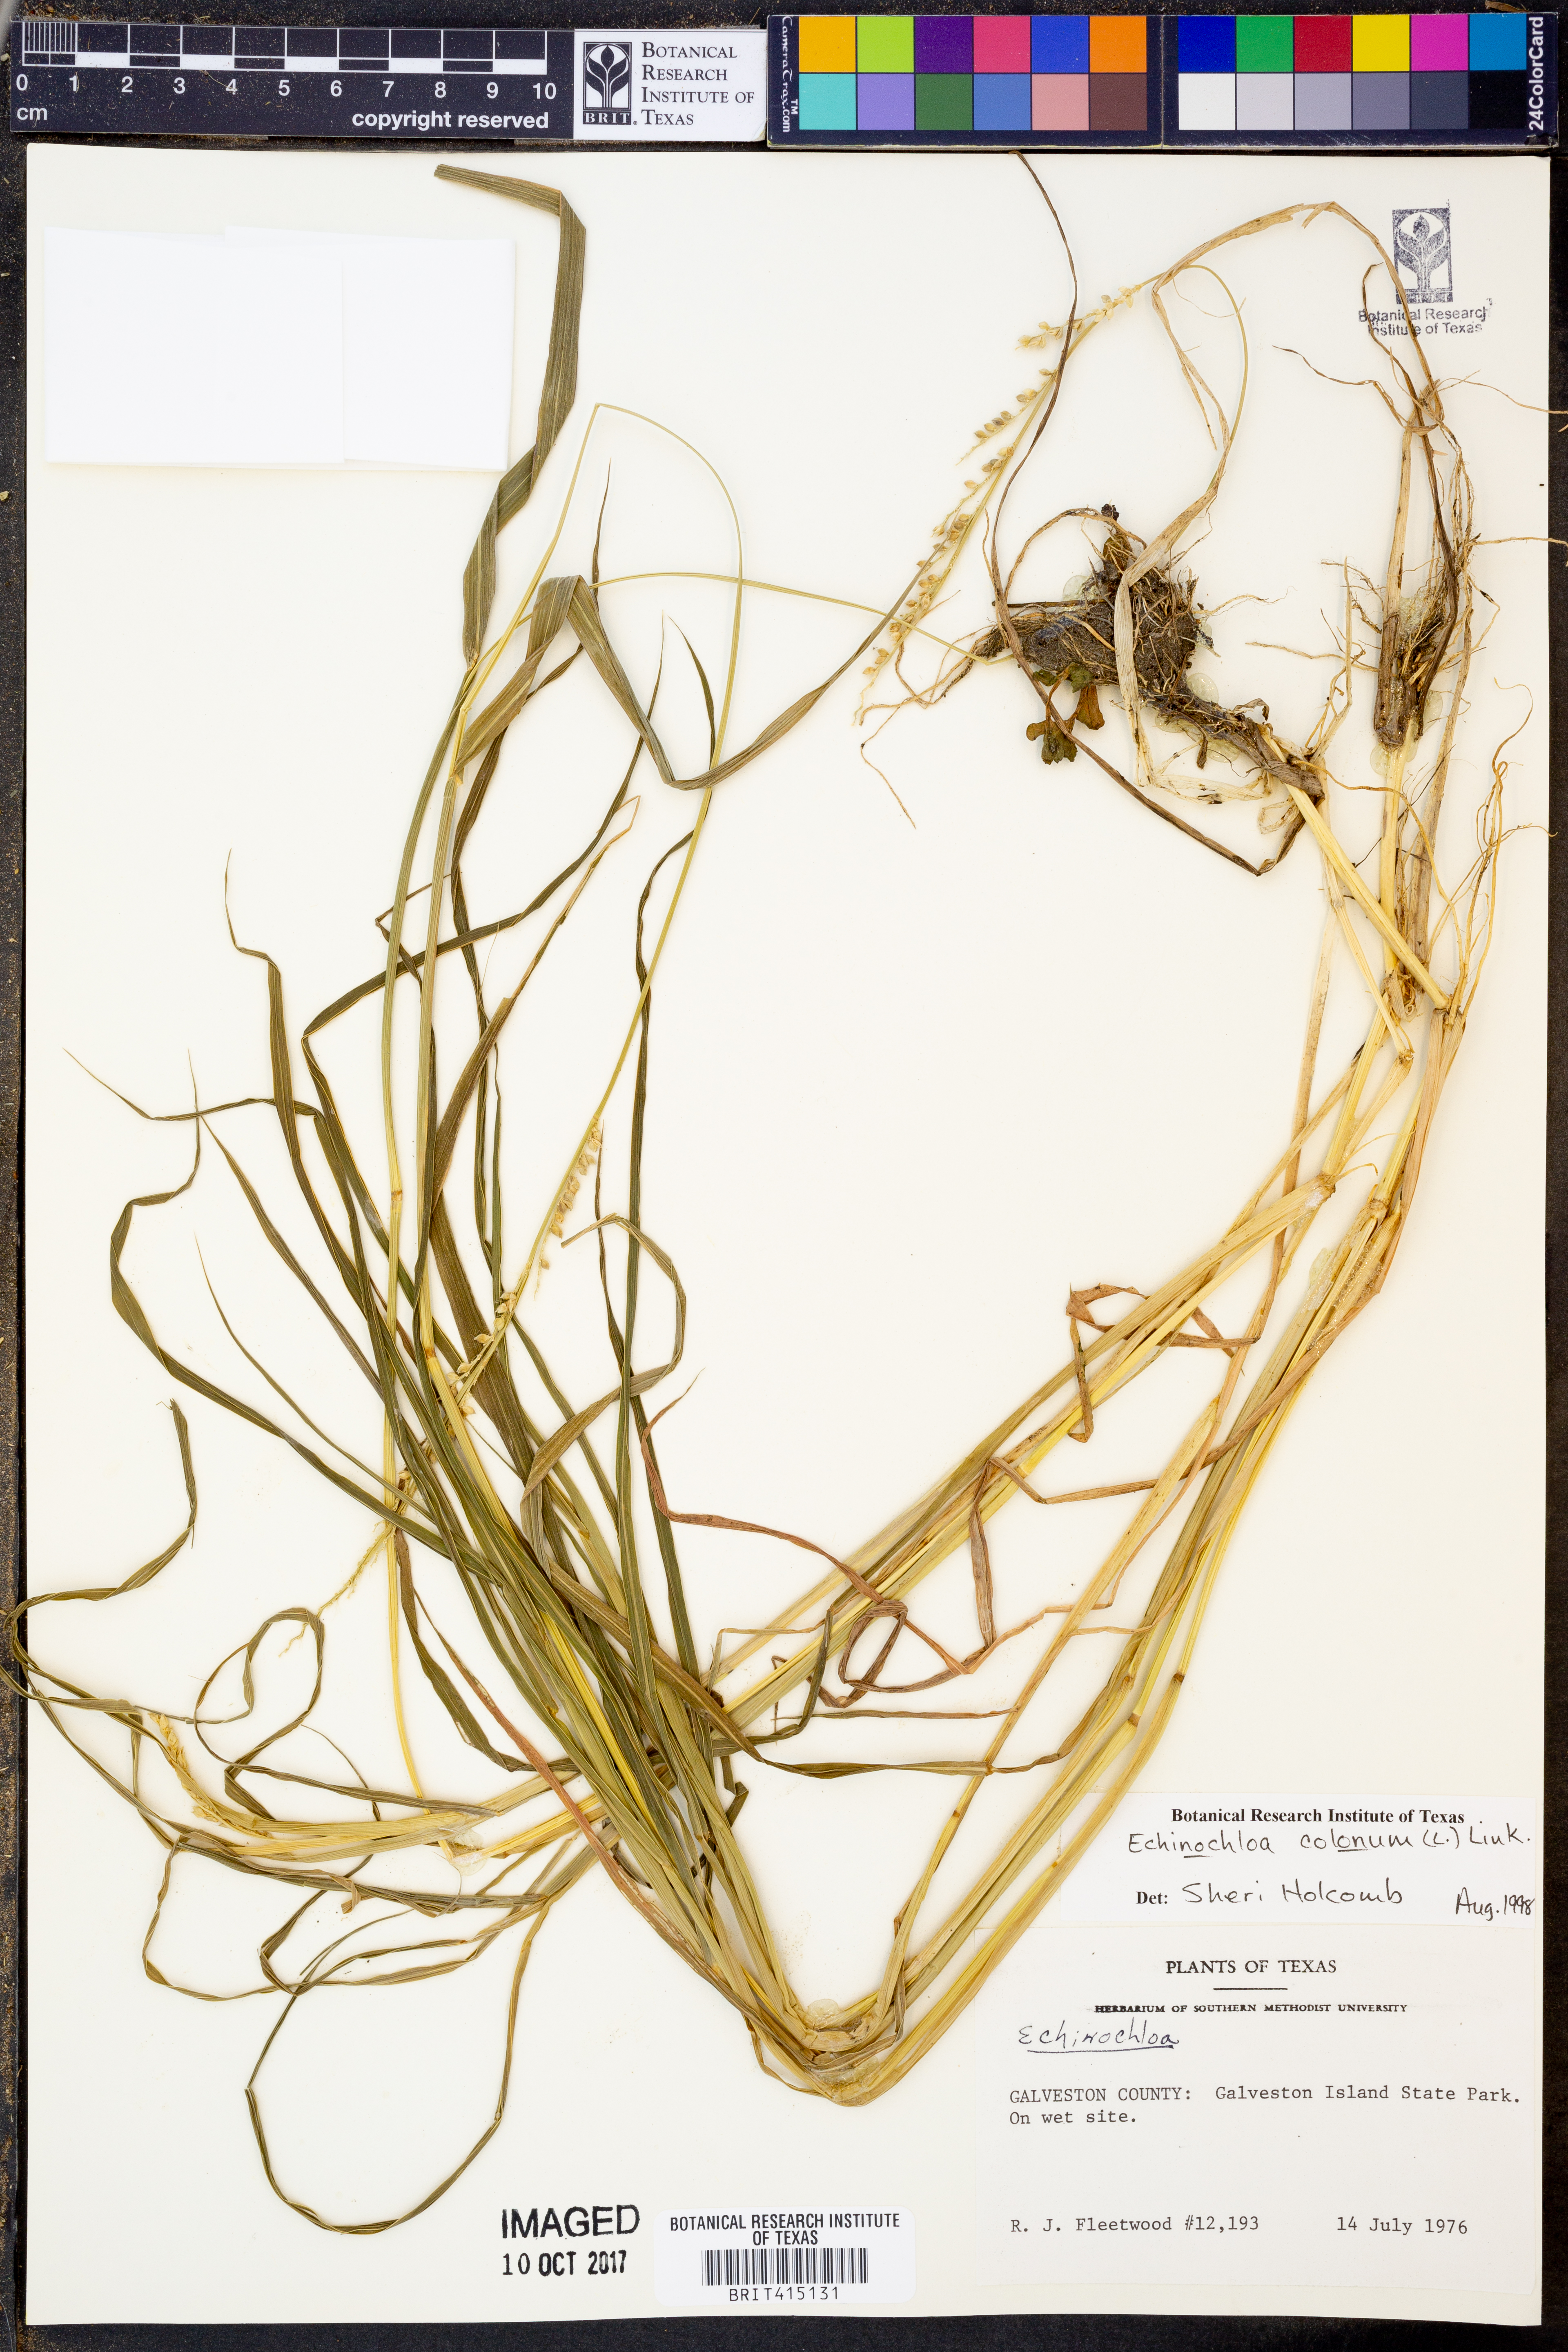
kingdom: Plantae
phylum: Tracheophyta
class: Liliopsida
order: Poales
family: Poaceae
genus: Echinochloa
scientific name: Echinochloa colonum
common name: Jungle rice
